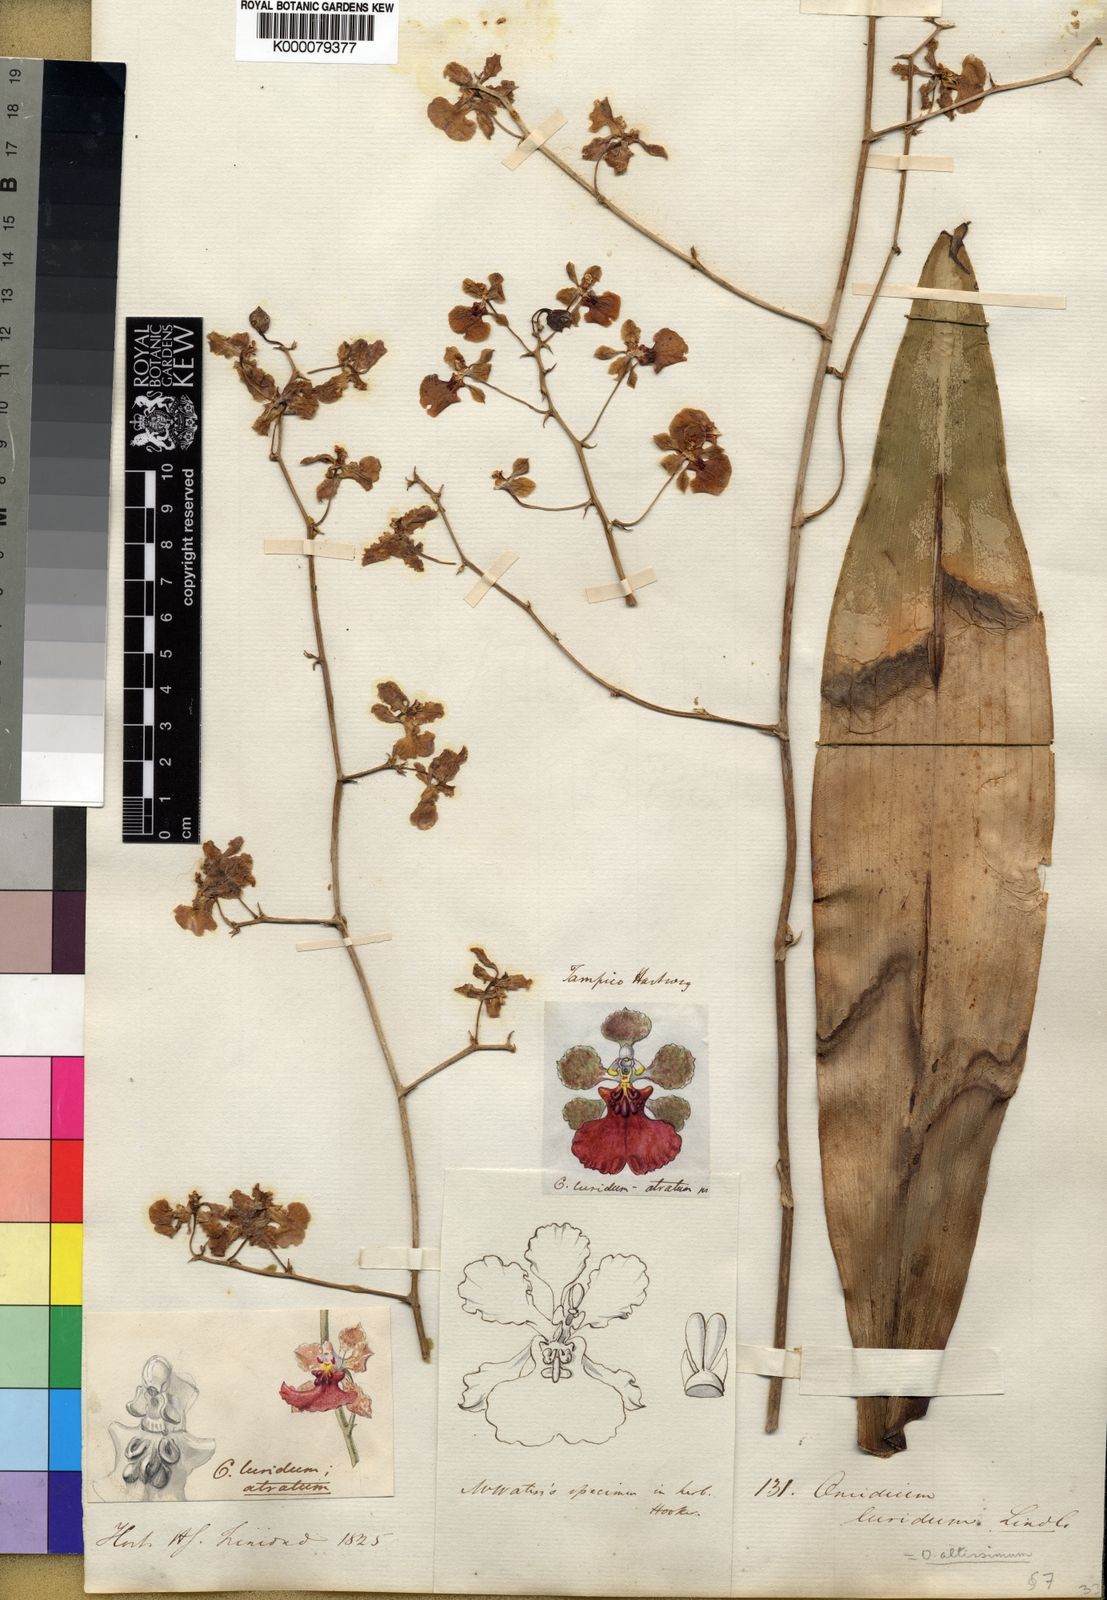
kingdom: Plantae
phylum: Tracheophyta
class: Liliopsida
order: Asparagales
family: Orchidaceae
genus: Trichocentrum
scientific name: Trichocentrum luridum
